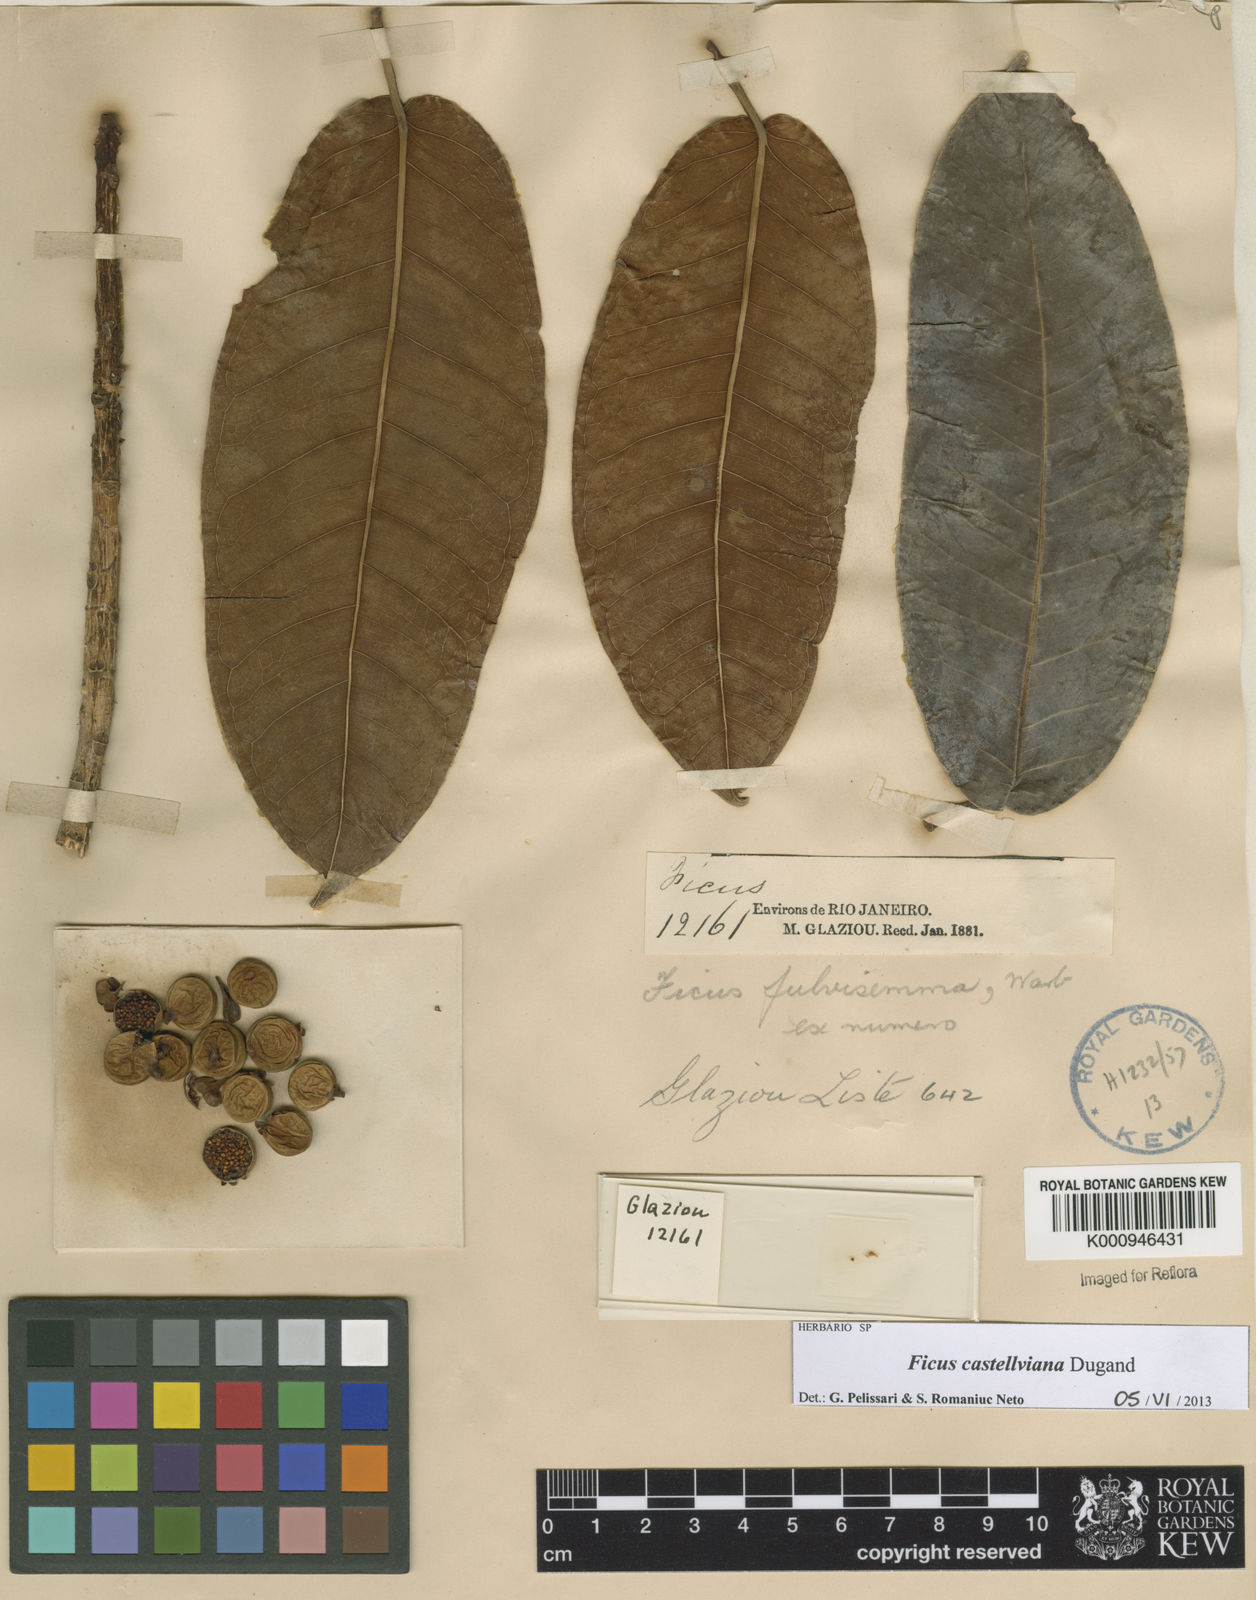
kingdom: Plantae
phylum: Tracheophyta
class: Magnoliopsida
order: Rosales
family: Moraceae
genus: Ficus
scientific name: Ficus castellviana
